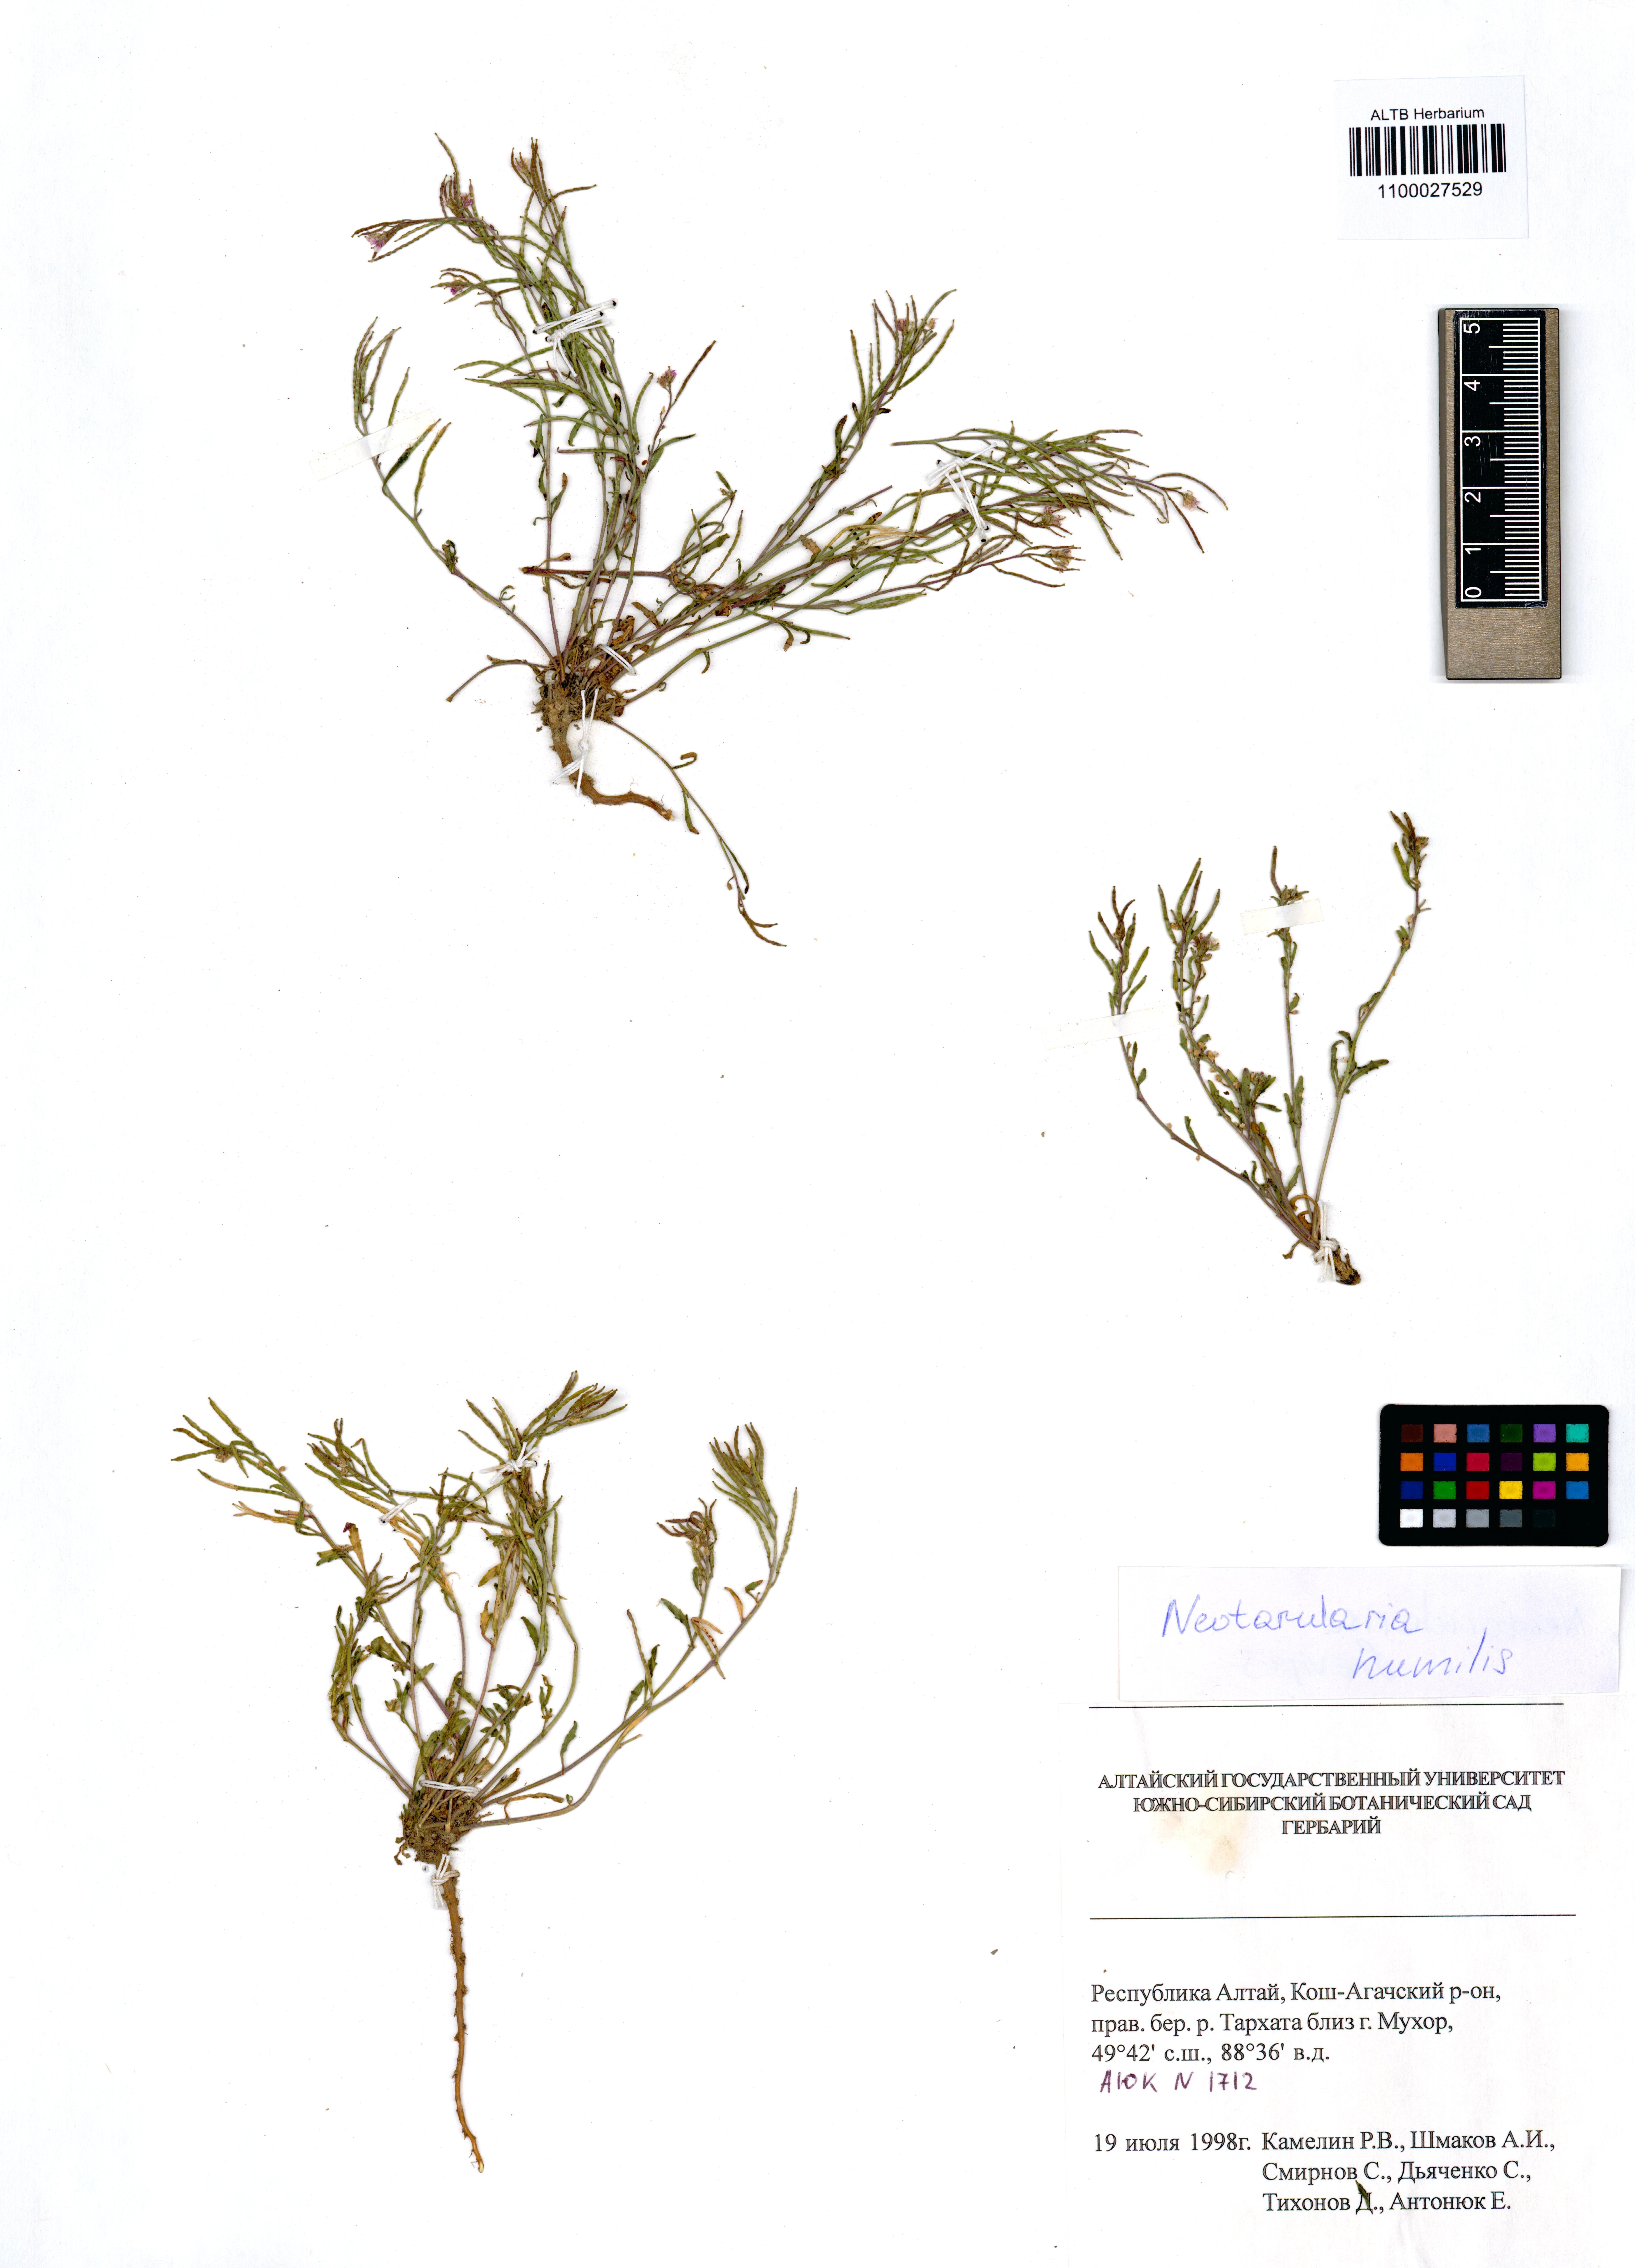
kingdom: Plantae
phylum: Tracheophyta
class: Magnoliopsida
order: Brassicales
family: Brassicaceae
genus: Braya
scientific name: Braya humilis
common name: Alpine northern rockcress
